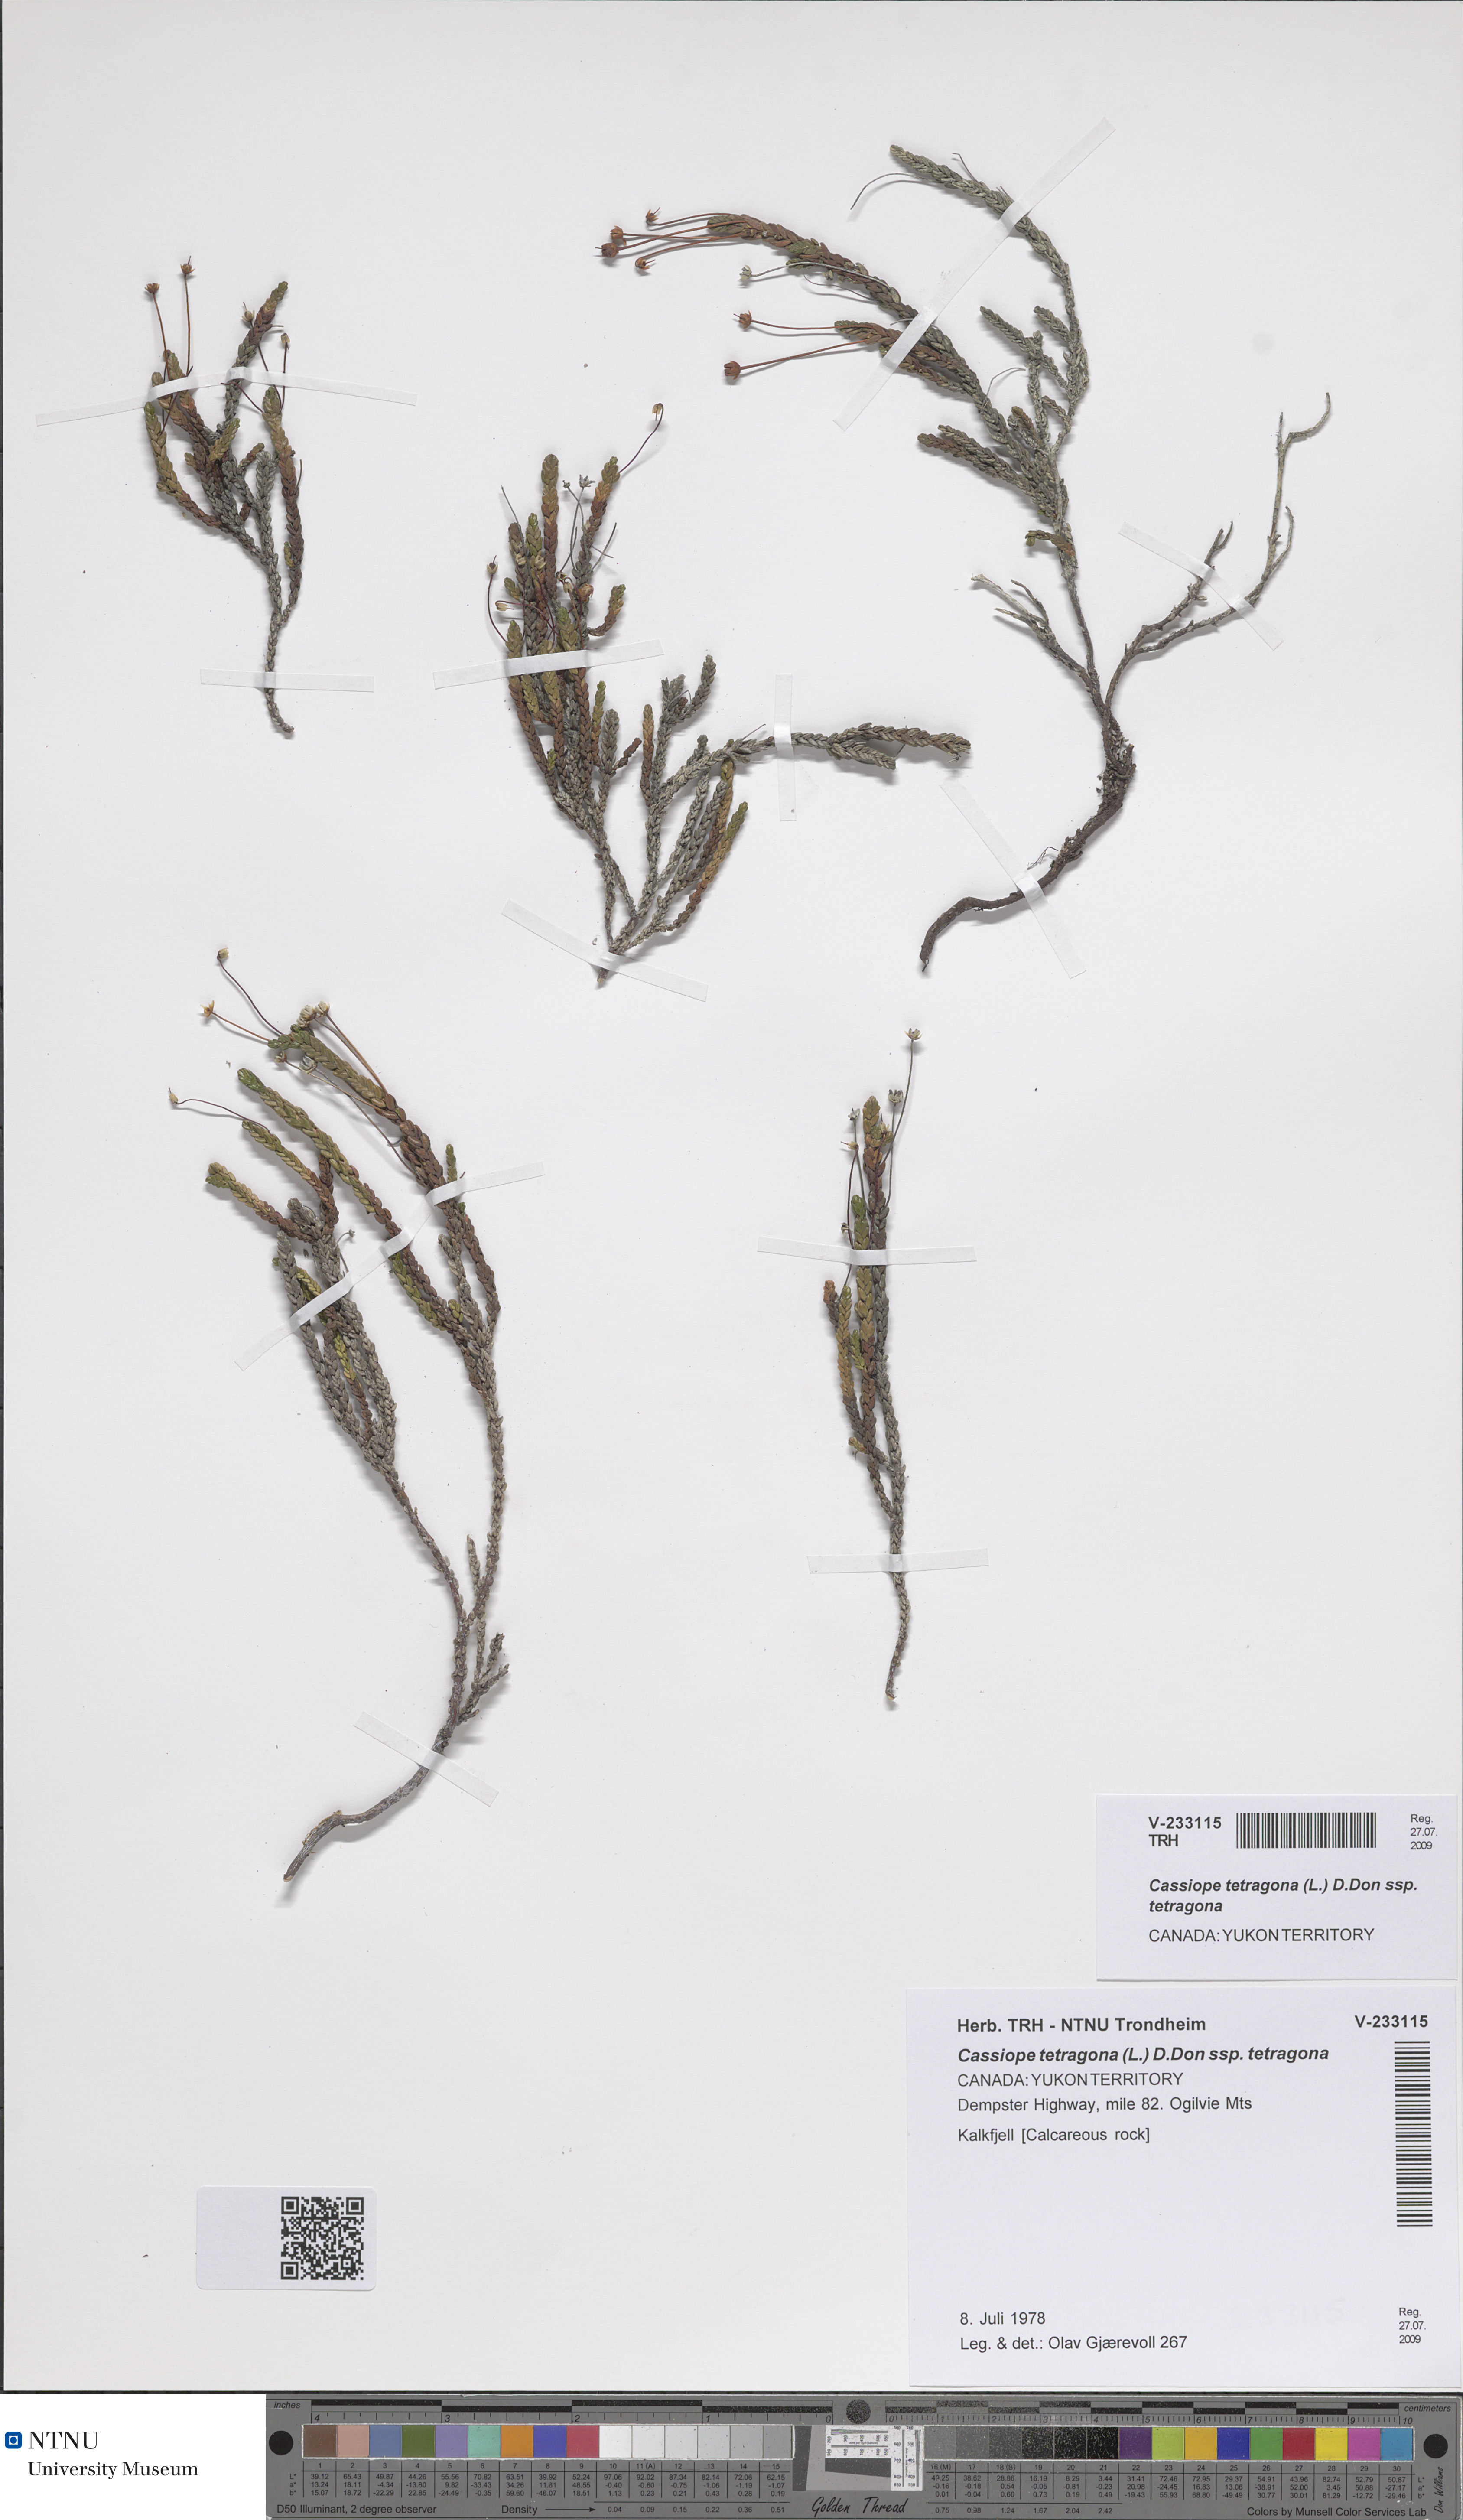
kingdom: Plantae
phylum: Tracheophyta
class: Magnoliopsida
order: Ericales
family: Ericaceae
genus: Cassiope
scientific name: Cassiope tetragona
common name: Arctic bell heather
